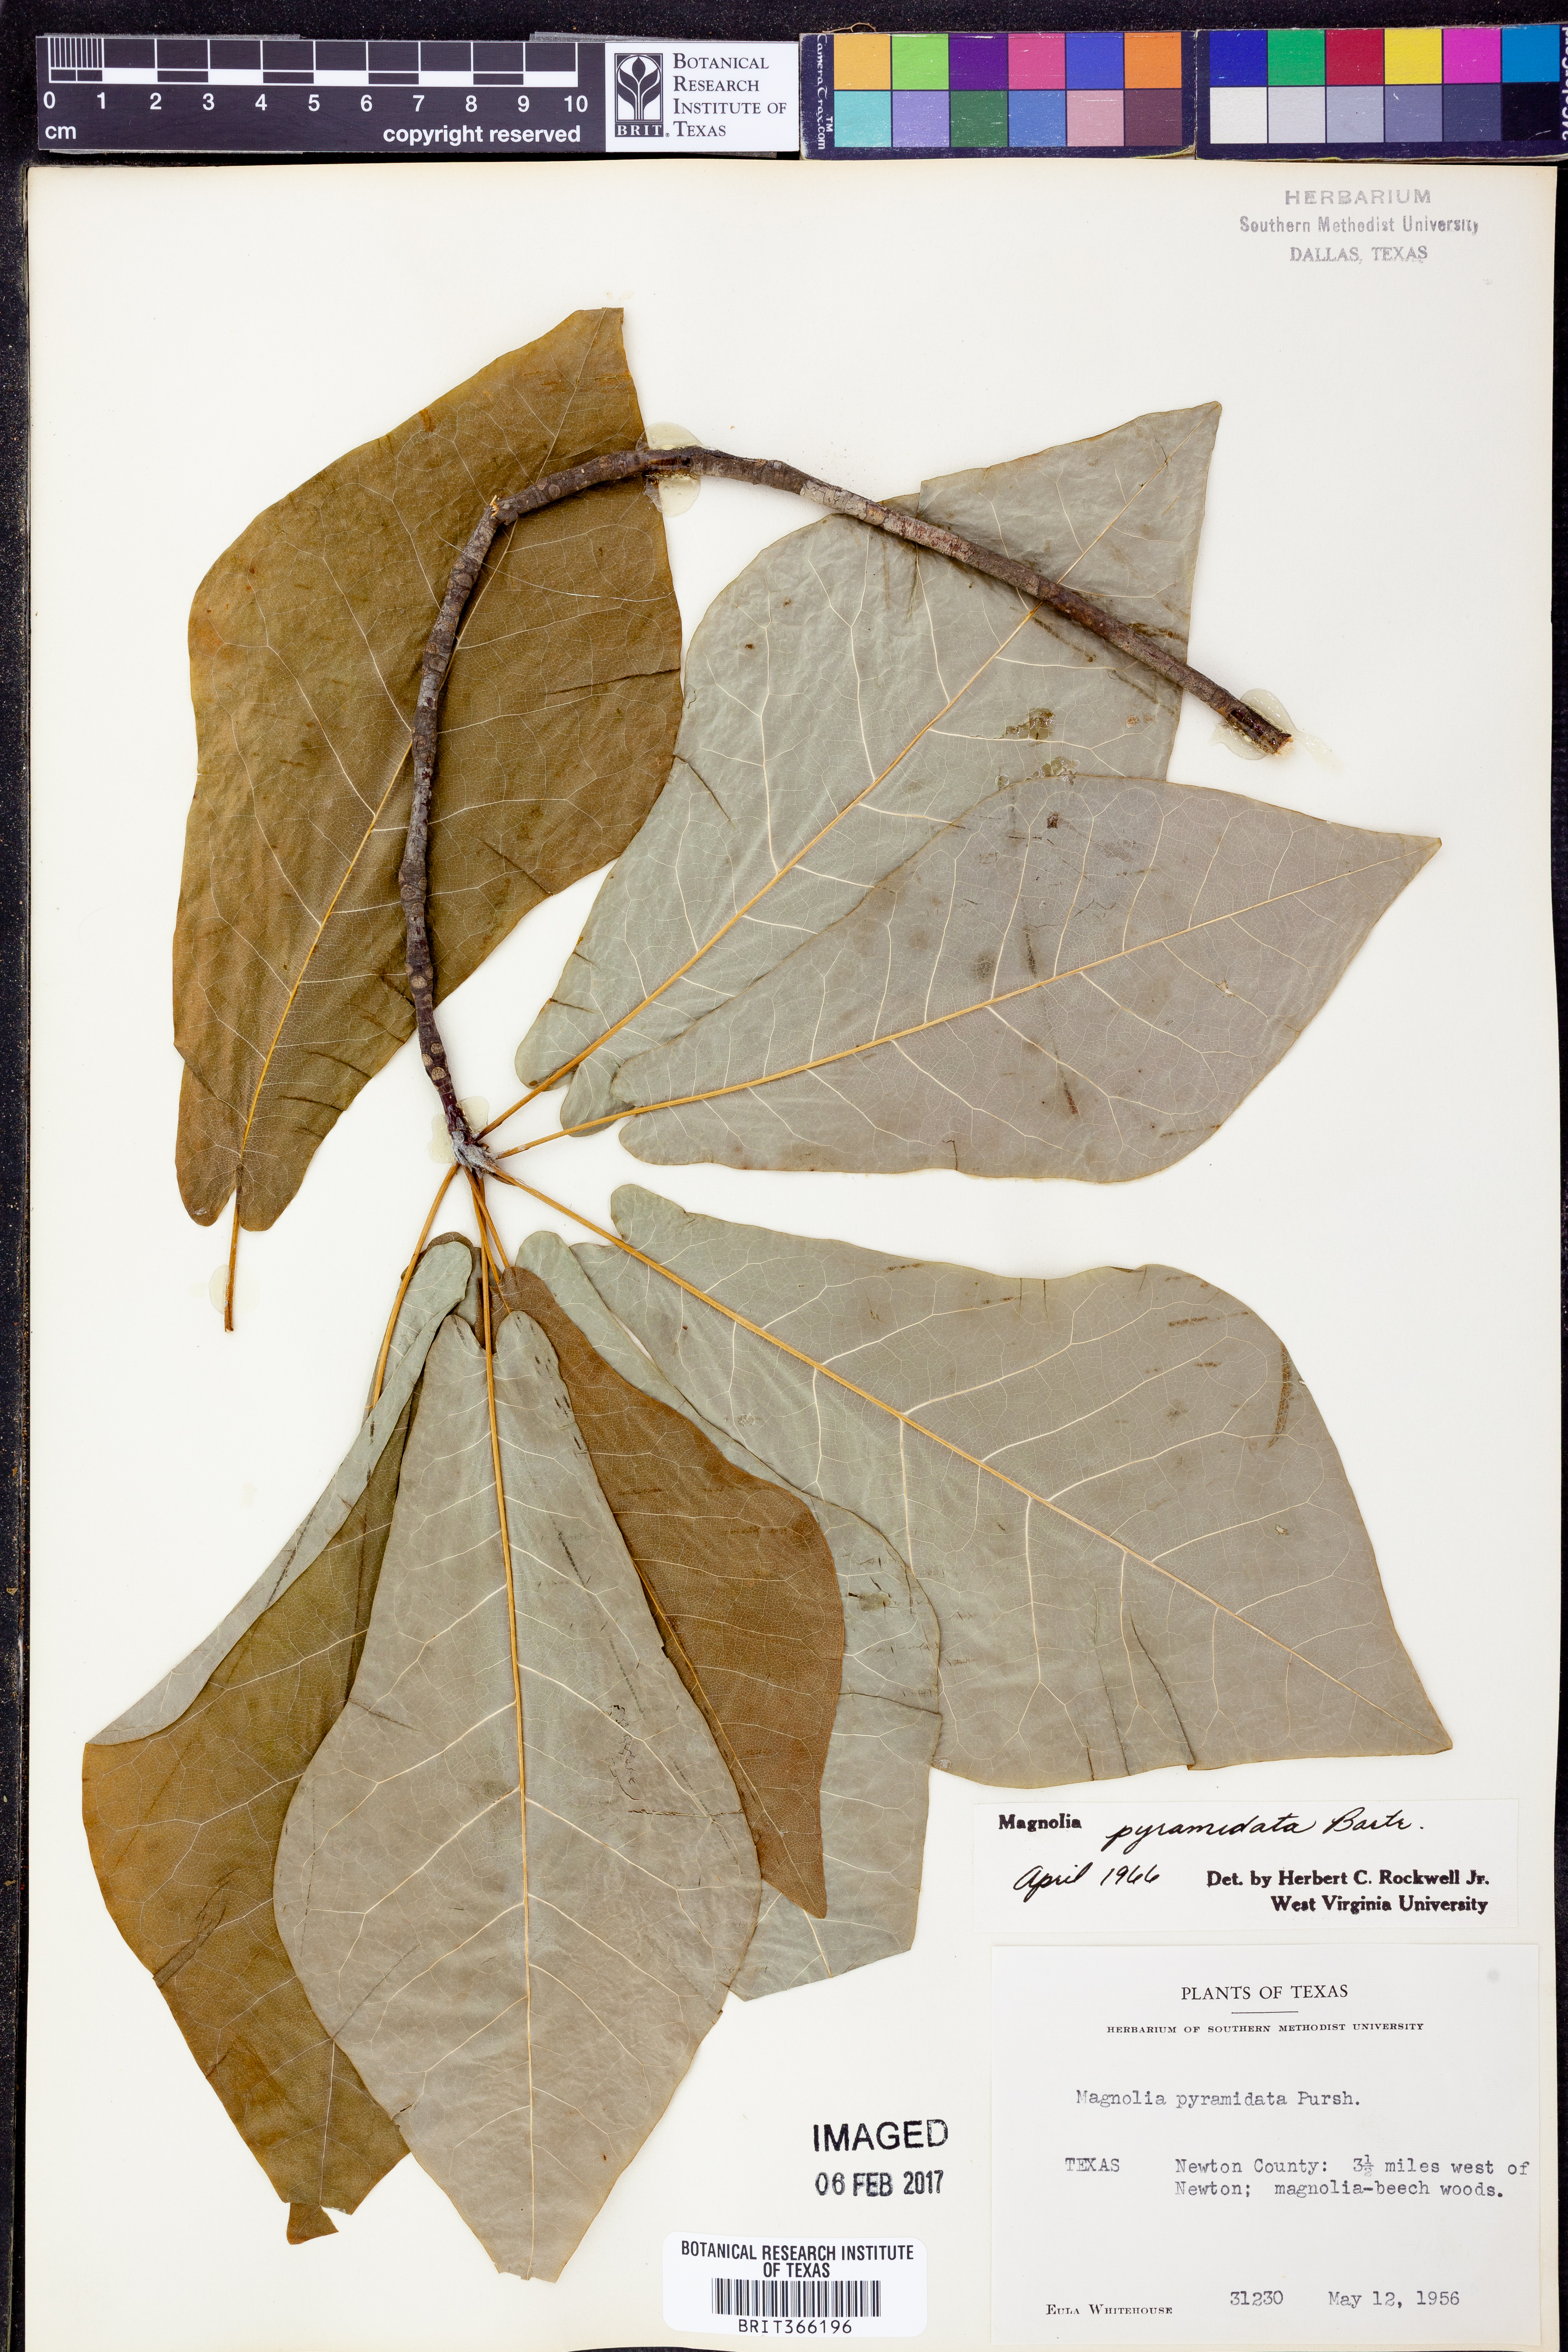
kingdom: Plantae
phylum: Tracheophyta
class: Magnoliopsida
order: Magnoliales
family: Magnoliaceae
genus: Magnolia
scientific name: Magnolia fraseri
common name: Fraser's magnolia
